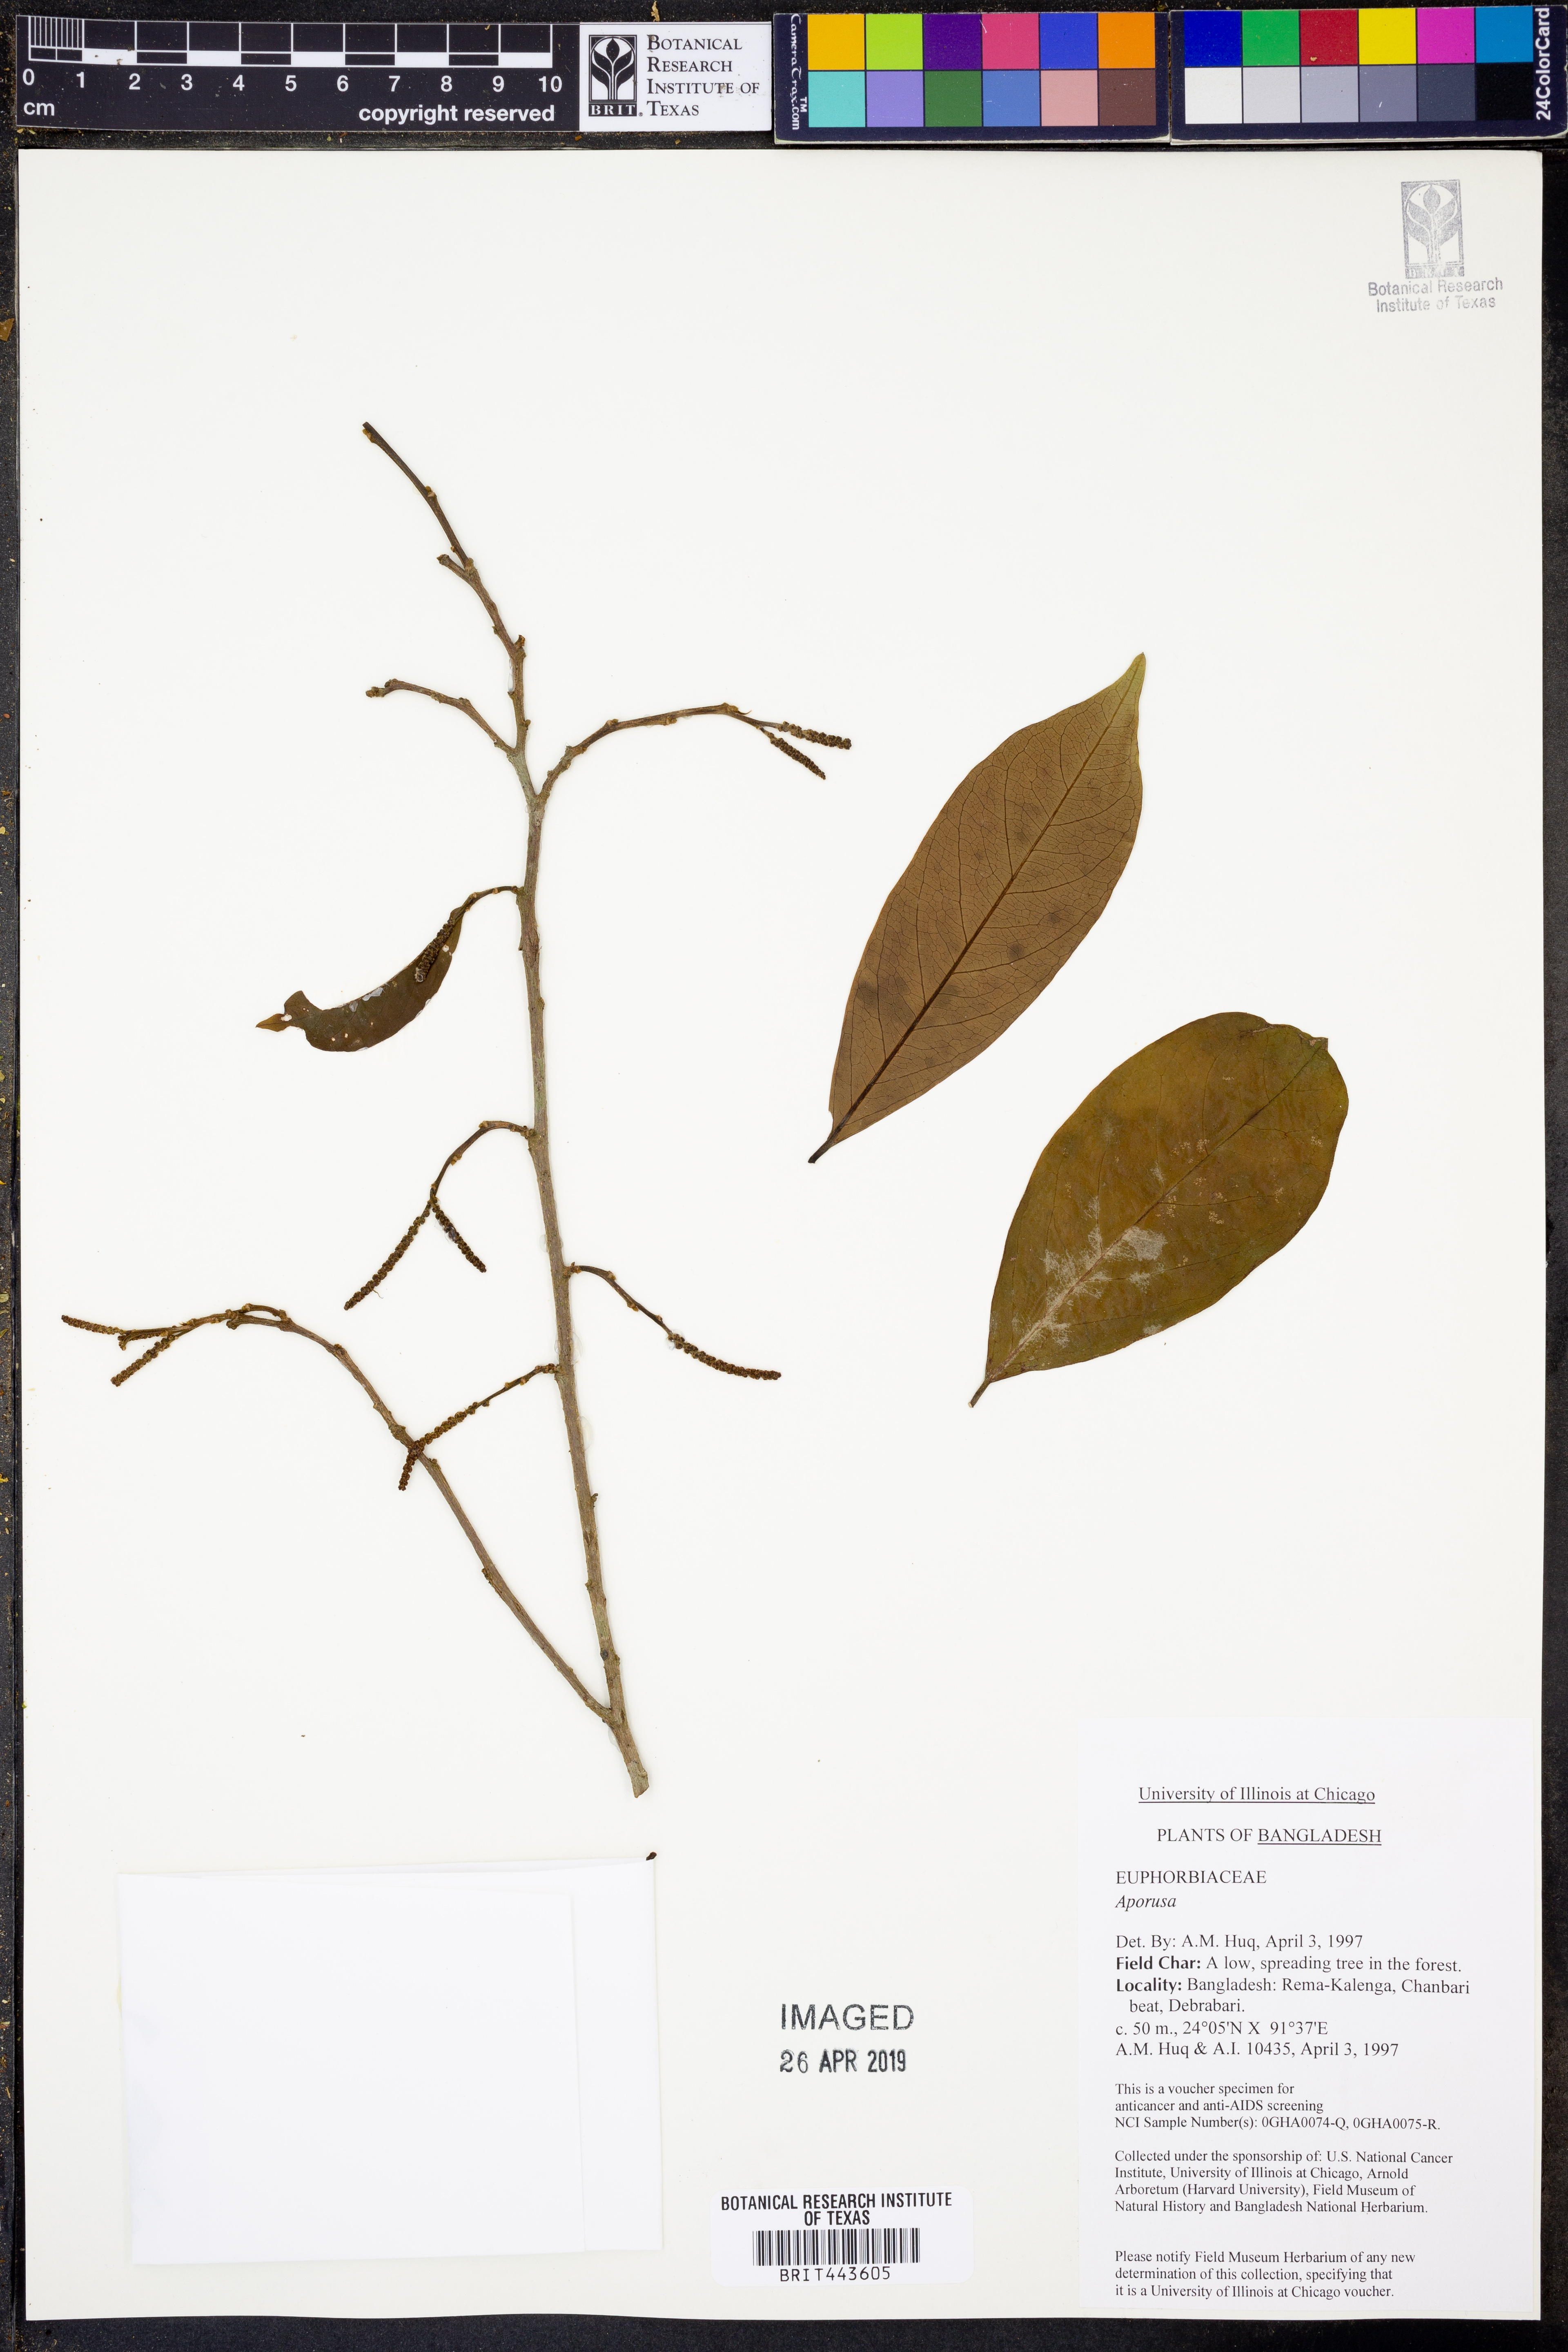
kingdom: Plantae
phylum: Tracheophyta
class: Magnoliopsida
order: Malpighiales
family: Phyllanthaceae
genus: Aporosa
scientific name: Aporosa
